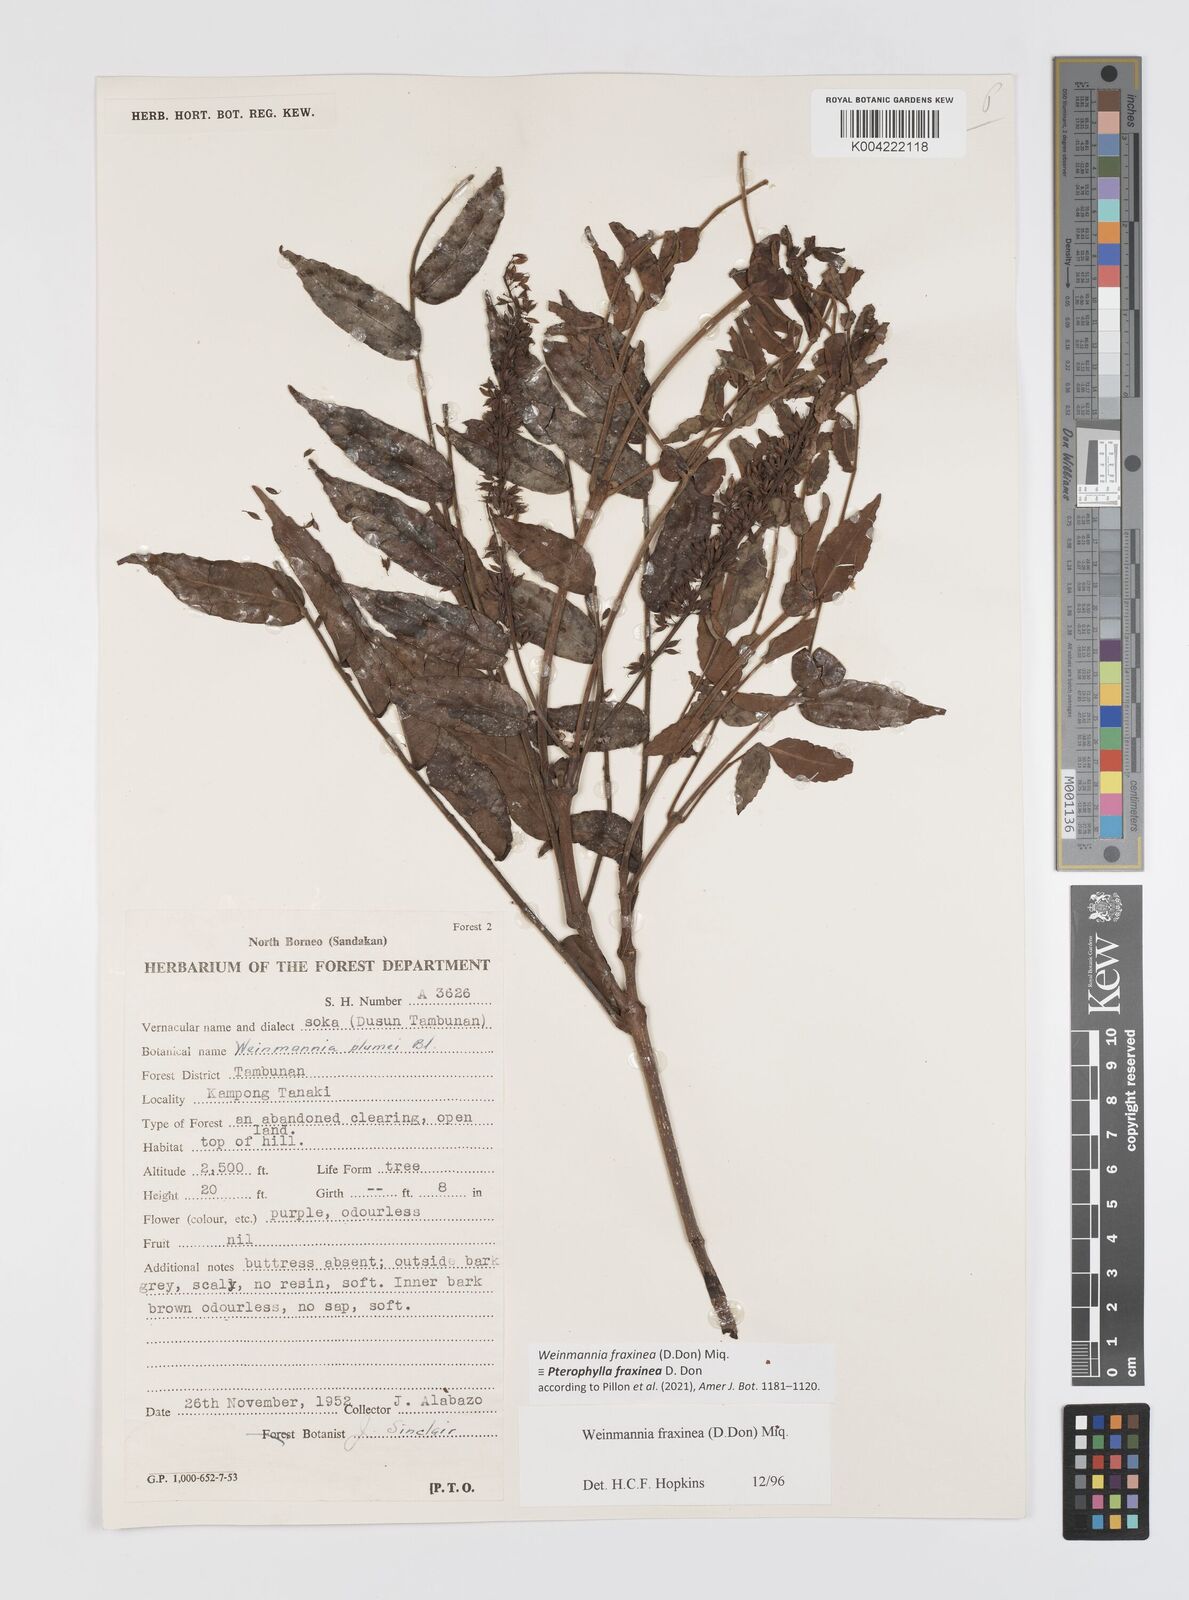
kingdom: Plantae
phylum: Tracheophyta
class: Magnoliopsida
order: Oxalidales
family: Cunoniaceae
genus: Pterophylla
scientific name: Pterophylla fraxinea
